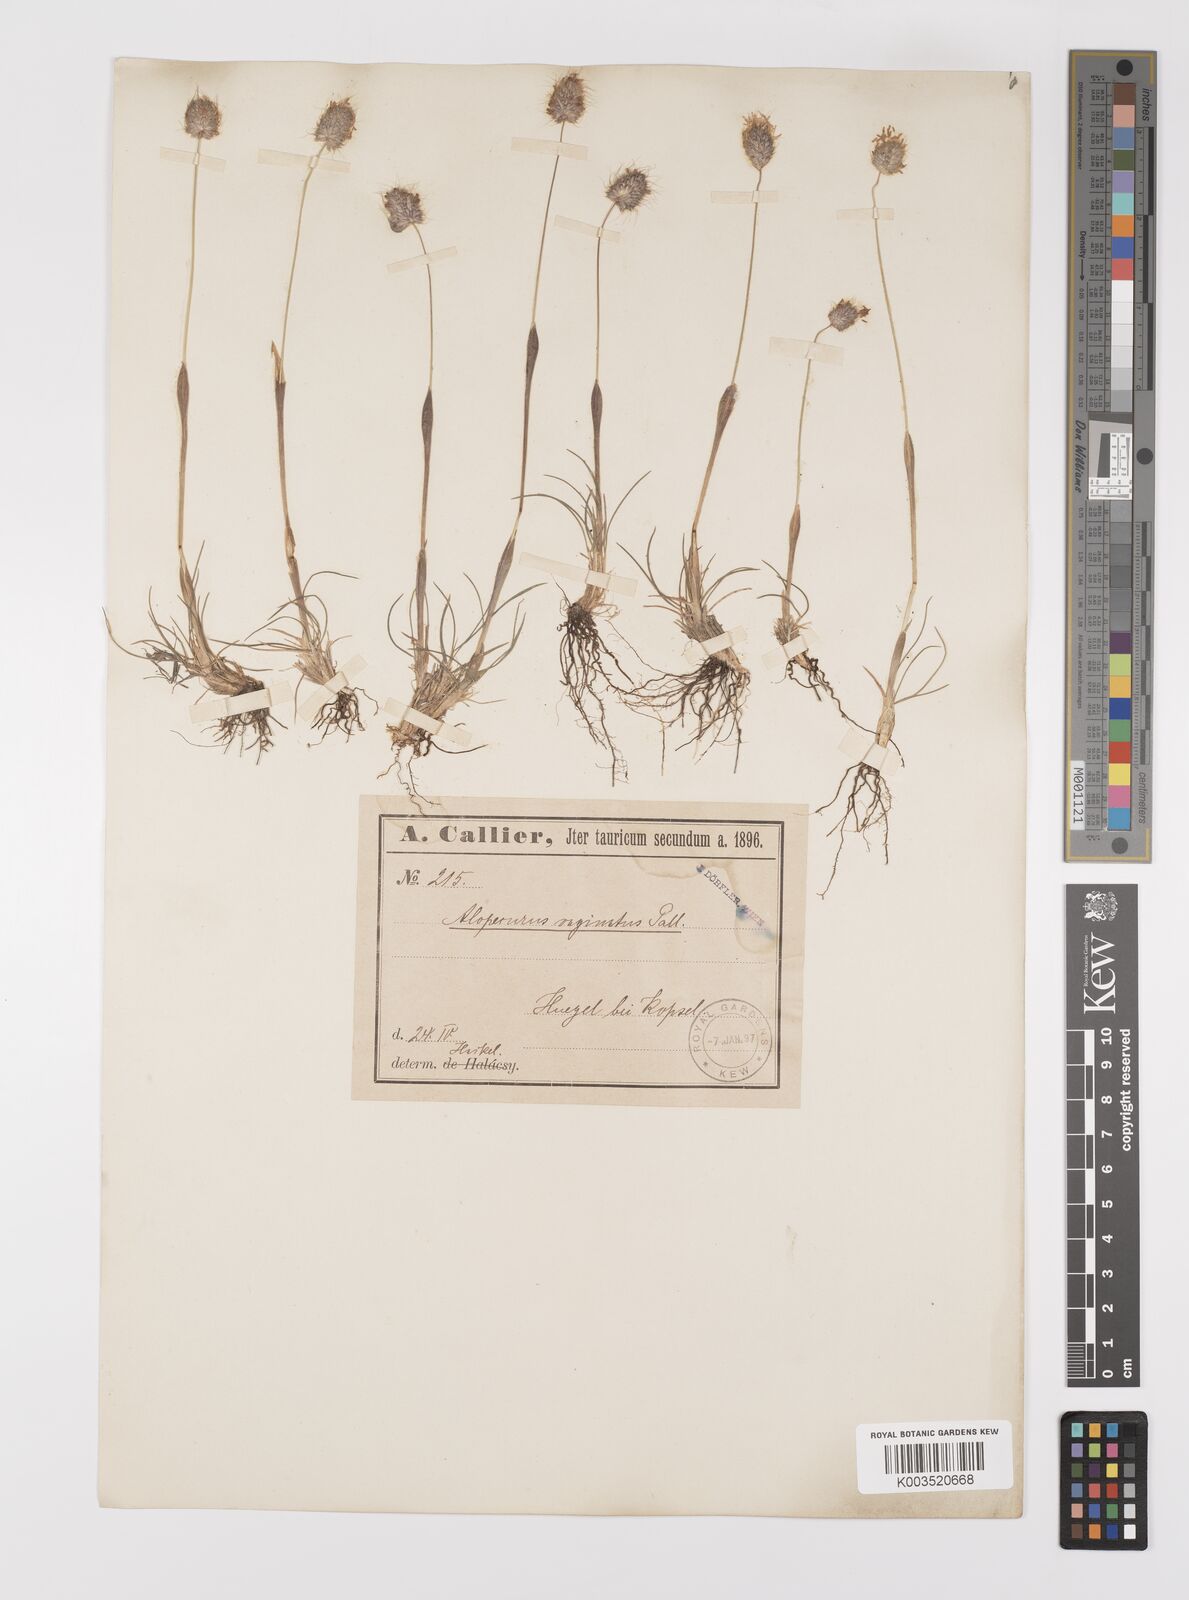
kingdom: Plantae
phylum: Tracheophyta
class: Liliopsida
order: Poales
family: Poaceae
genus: Alopecurus
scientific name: Alopecurus vaginatus
